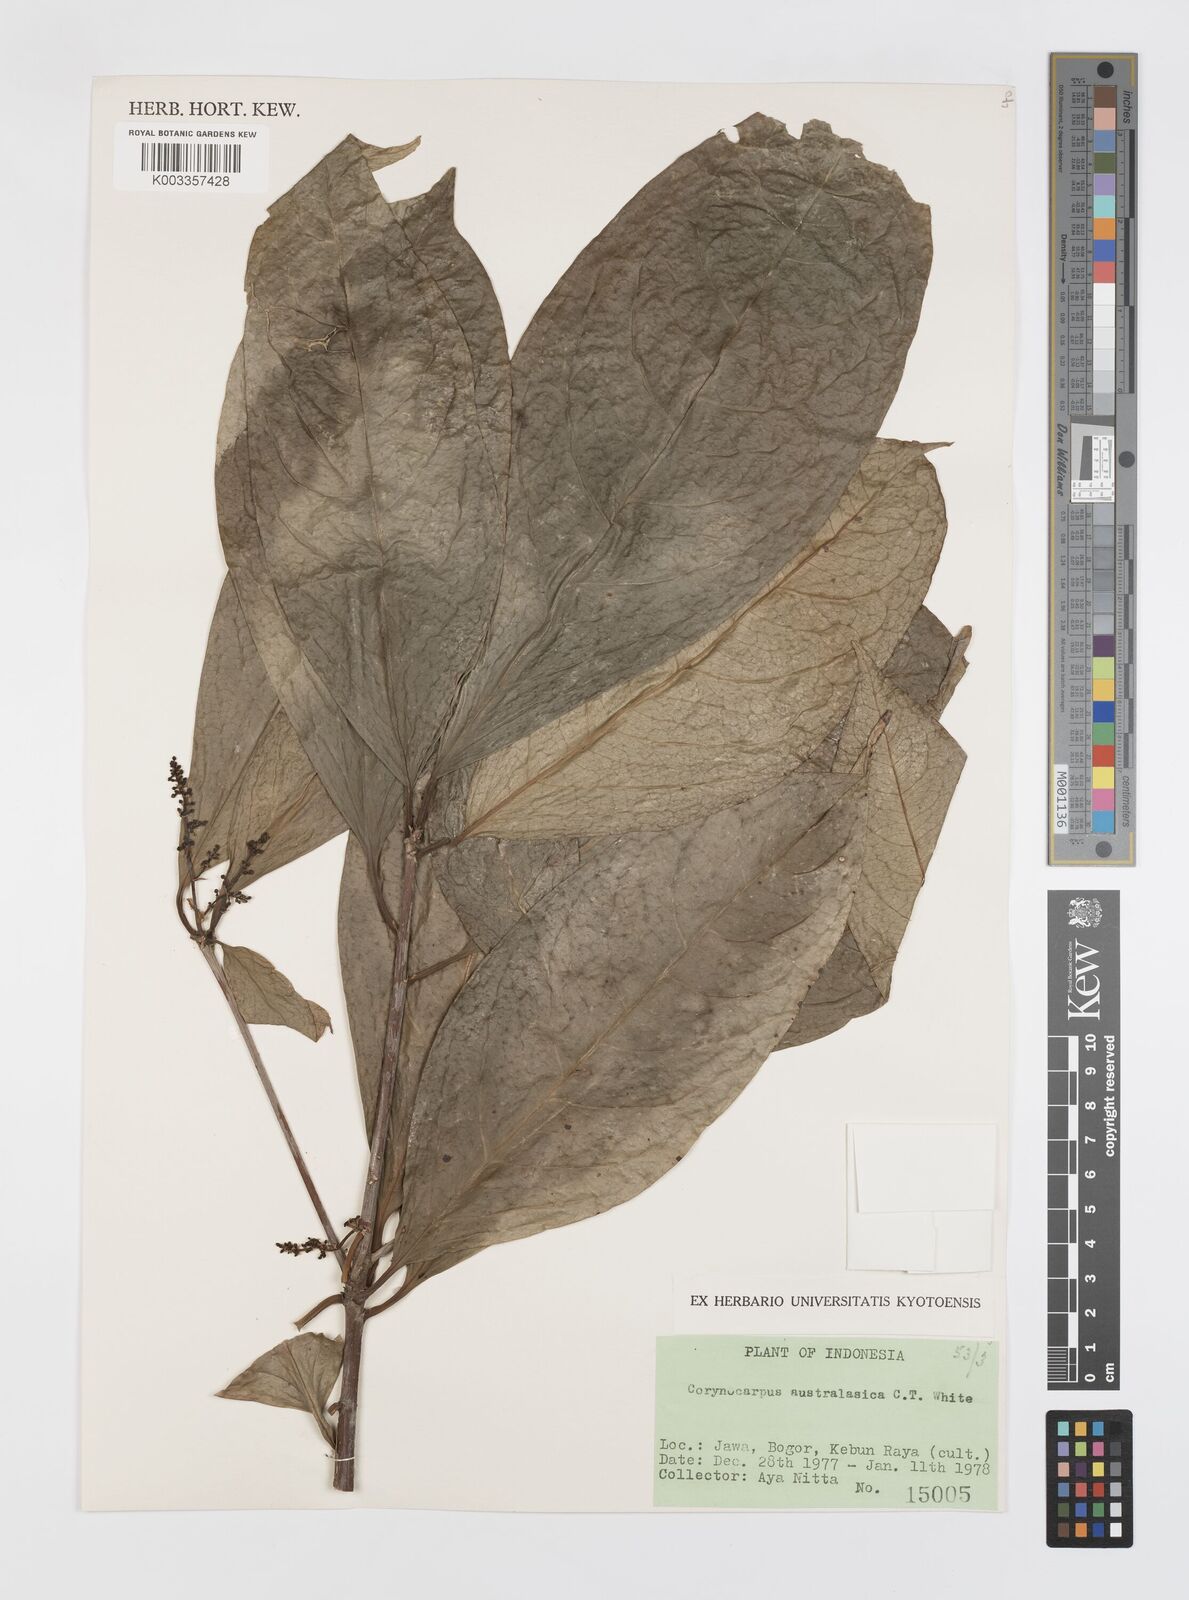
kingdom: Plantae
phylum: Tracheophyta
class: Magnoliopsida
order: Cucurbitales
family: Corynocarpaceae
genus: Corynocarpus
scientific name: Corynocarpus cribbianus
